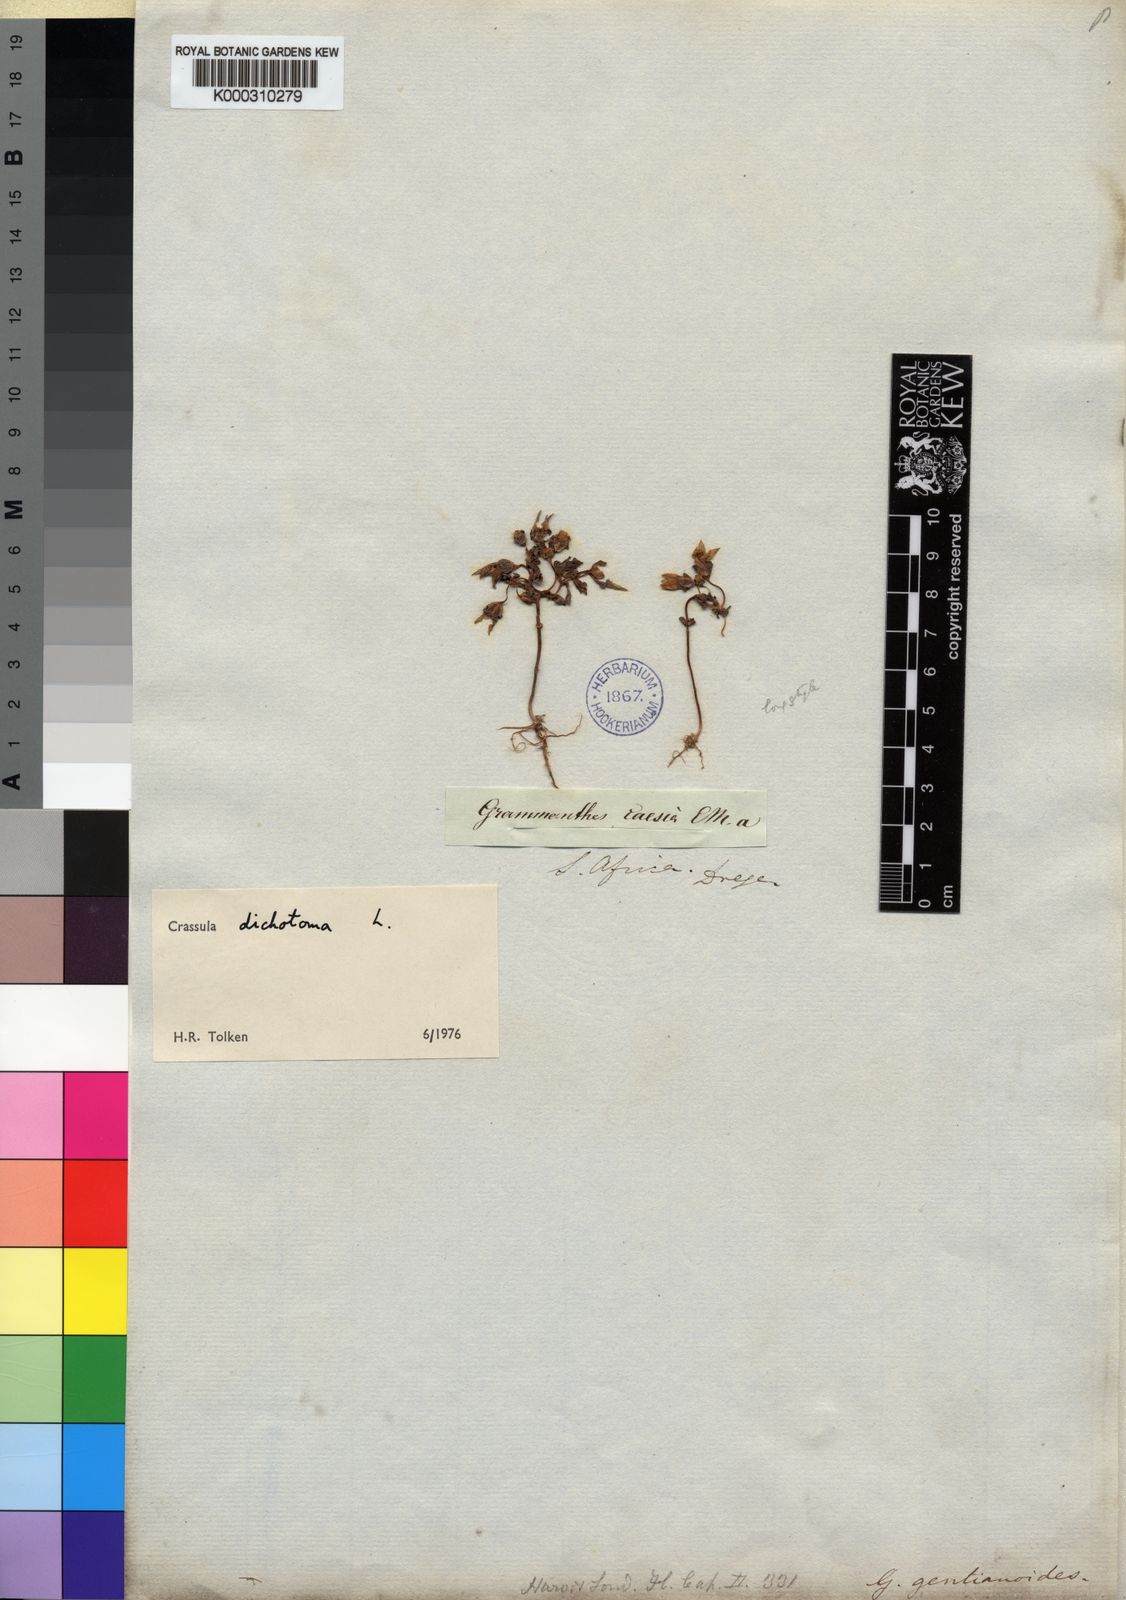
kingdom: Plantae
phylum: Tracheophyta
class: Magnoliopsida
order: Saxifragales
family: Crassulaceae
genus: Crassula
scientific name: Crassula dichotoma
